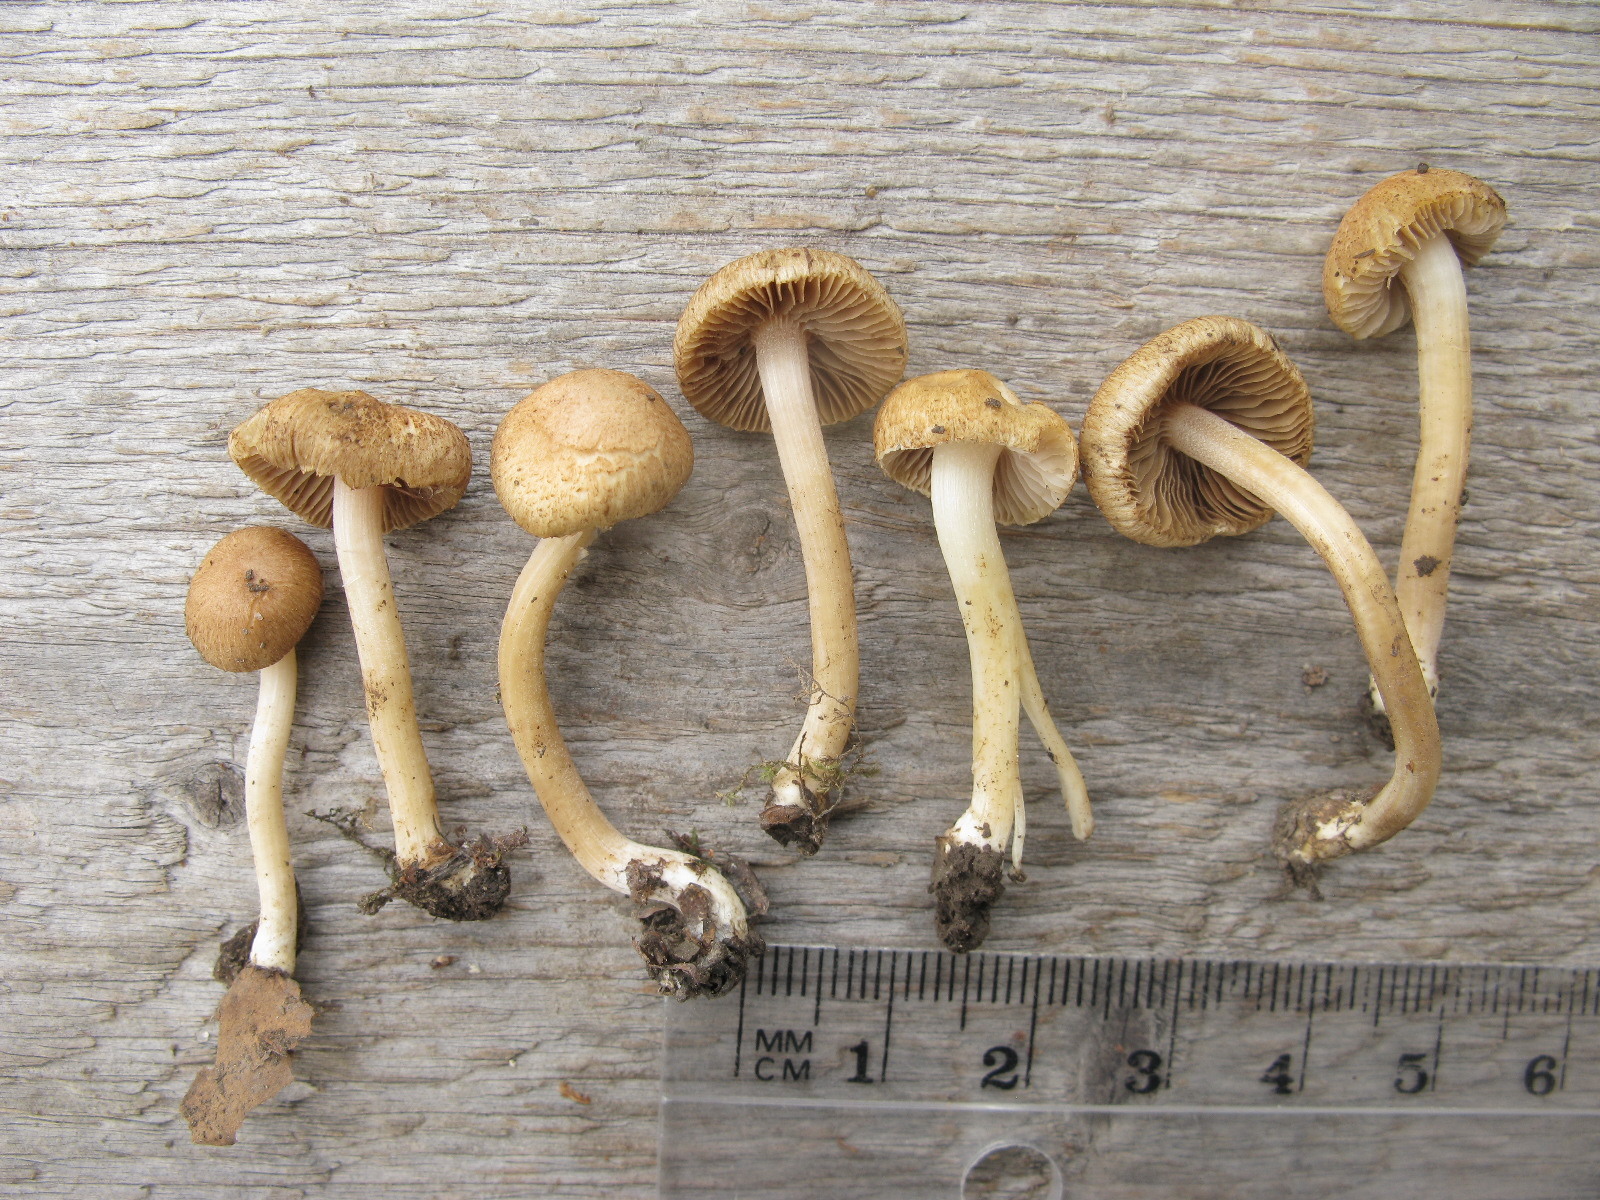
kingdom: Fungi
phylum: Basidiomycota
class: Agaricomycetes
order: Agaricales
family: Inocybaceae
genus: Inocybe
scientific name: Inocybe
